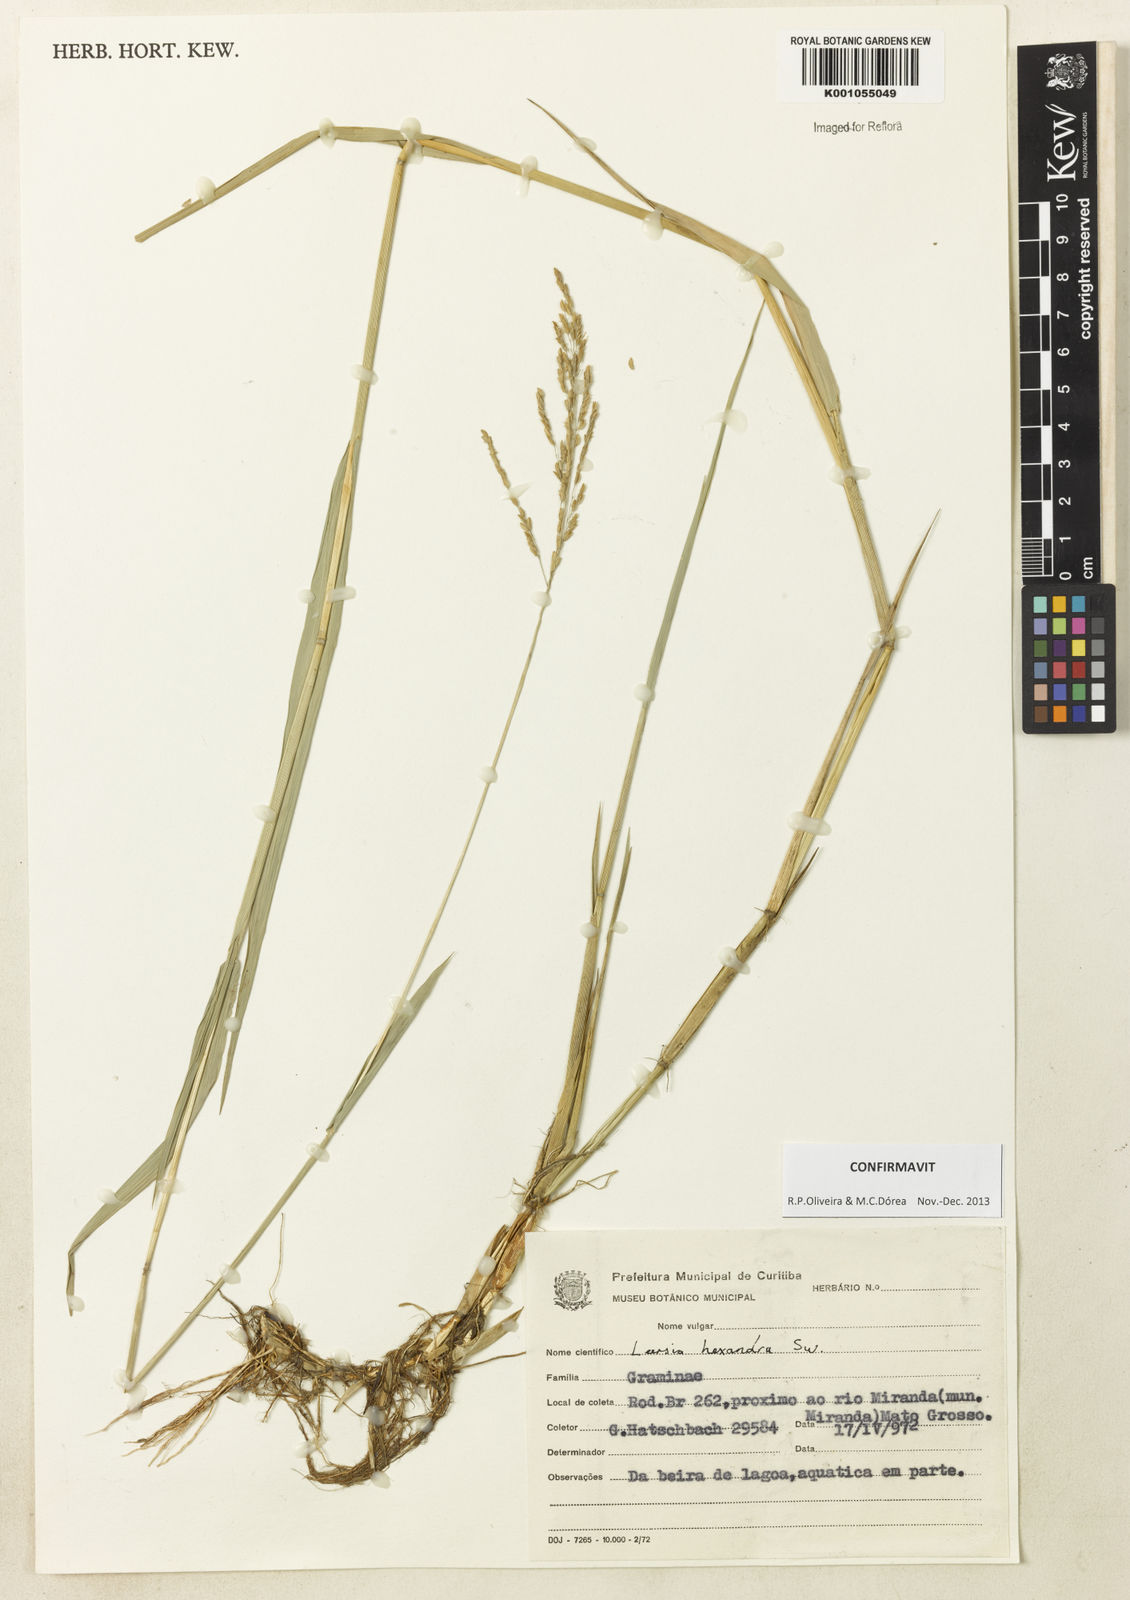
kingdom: Plantae
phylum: Tracheophyta
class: Liliopsida
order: Poales
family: Poaceae
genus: Leersia
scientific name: Leersia hexandra
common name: Southern cut grass
